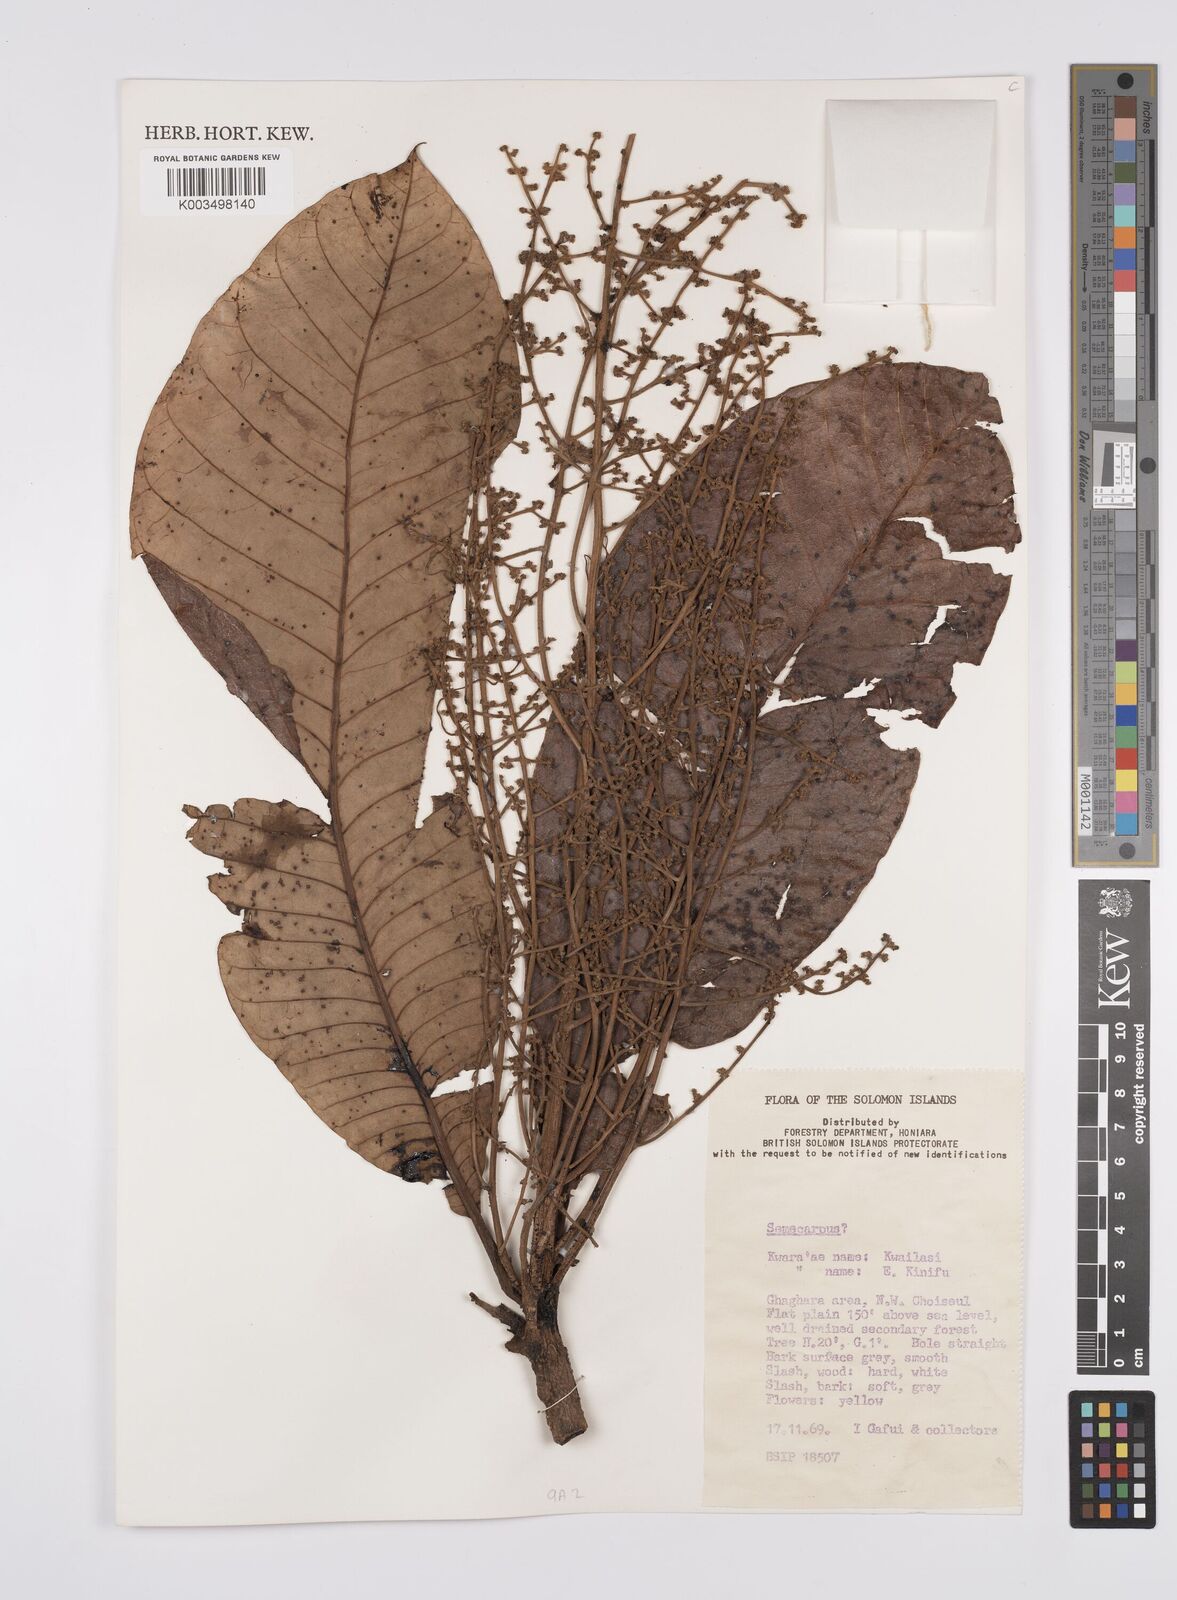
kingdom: Plantae
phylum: Tracheophyta
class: Magnoliopsida
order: Sapindales
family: Anacardiaceae
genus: Semecarpus
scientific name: Semecarpus
